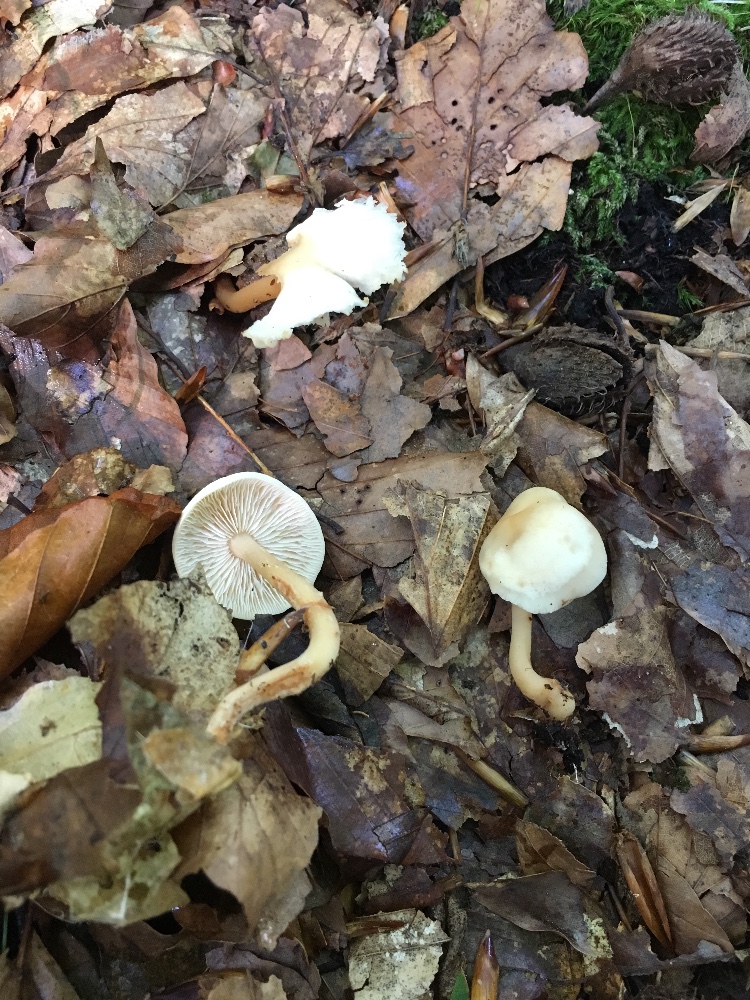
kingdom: Fungi
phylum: Basidiomycota
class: Agaricomycetes
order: Agaricales
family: Omphalotaceae
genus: Gymnopus
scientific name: Gymnopus aquosus
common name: bleg fladhat
